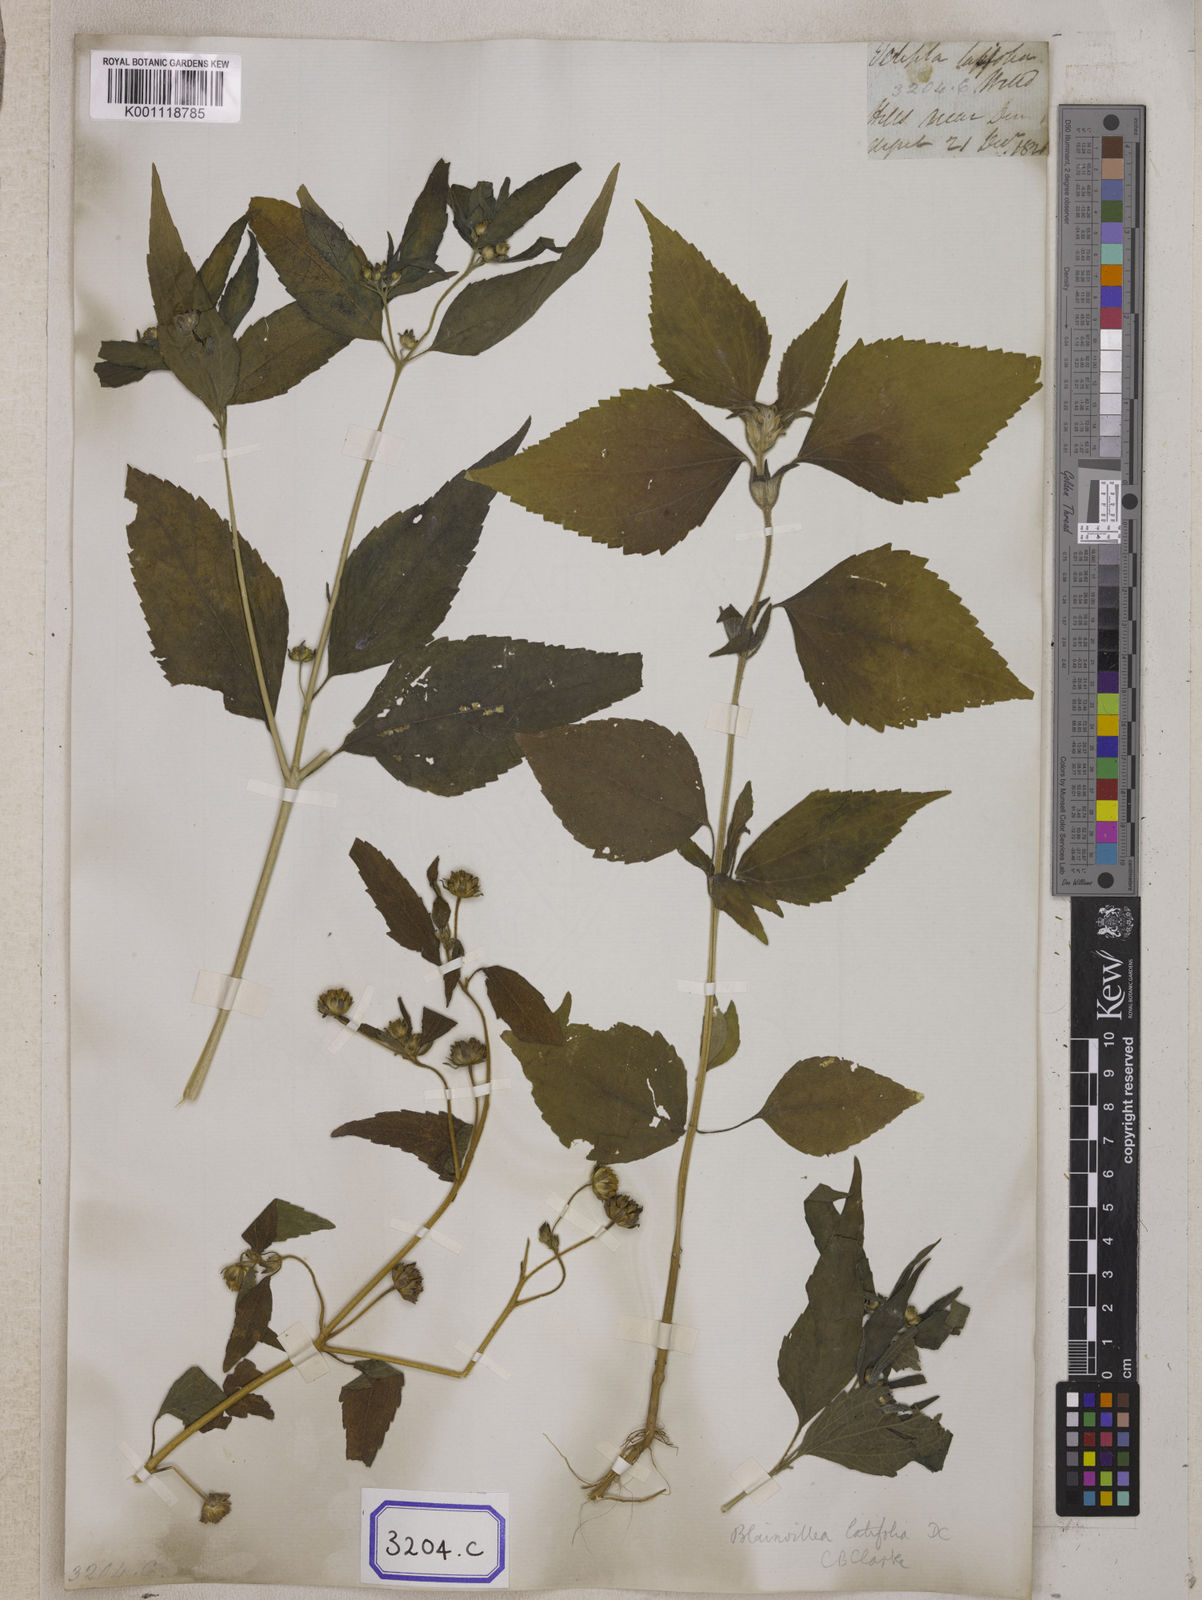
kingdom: Plantae
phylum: Tracheophyta
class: Magnoliopsida
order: Asterales
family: Asteraceae
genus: Blainvillea
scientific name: Blainvillea acmella
